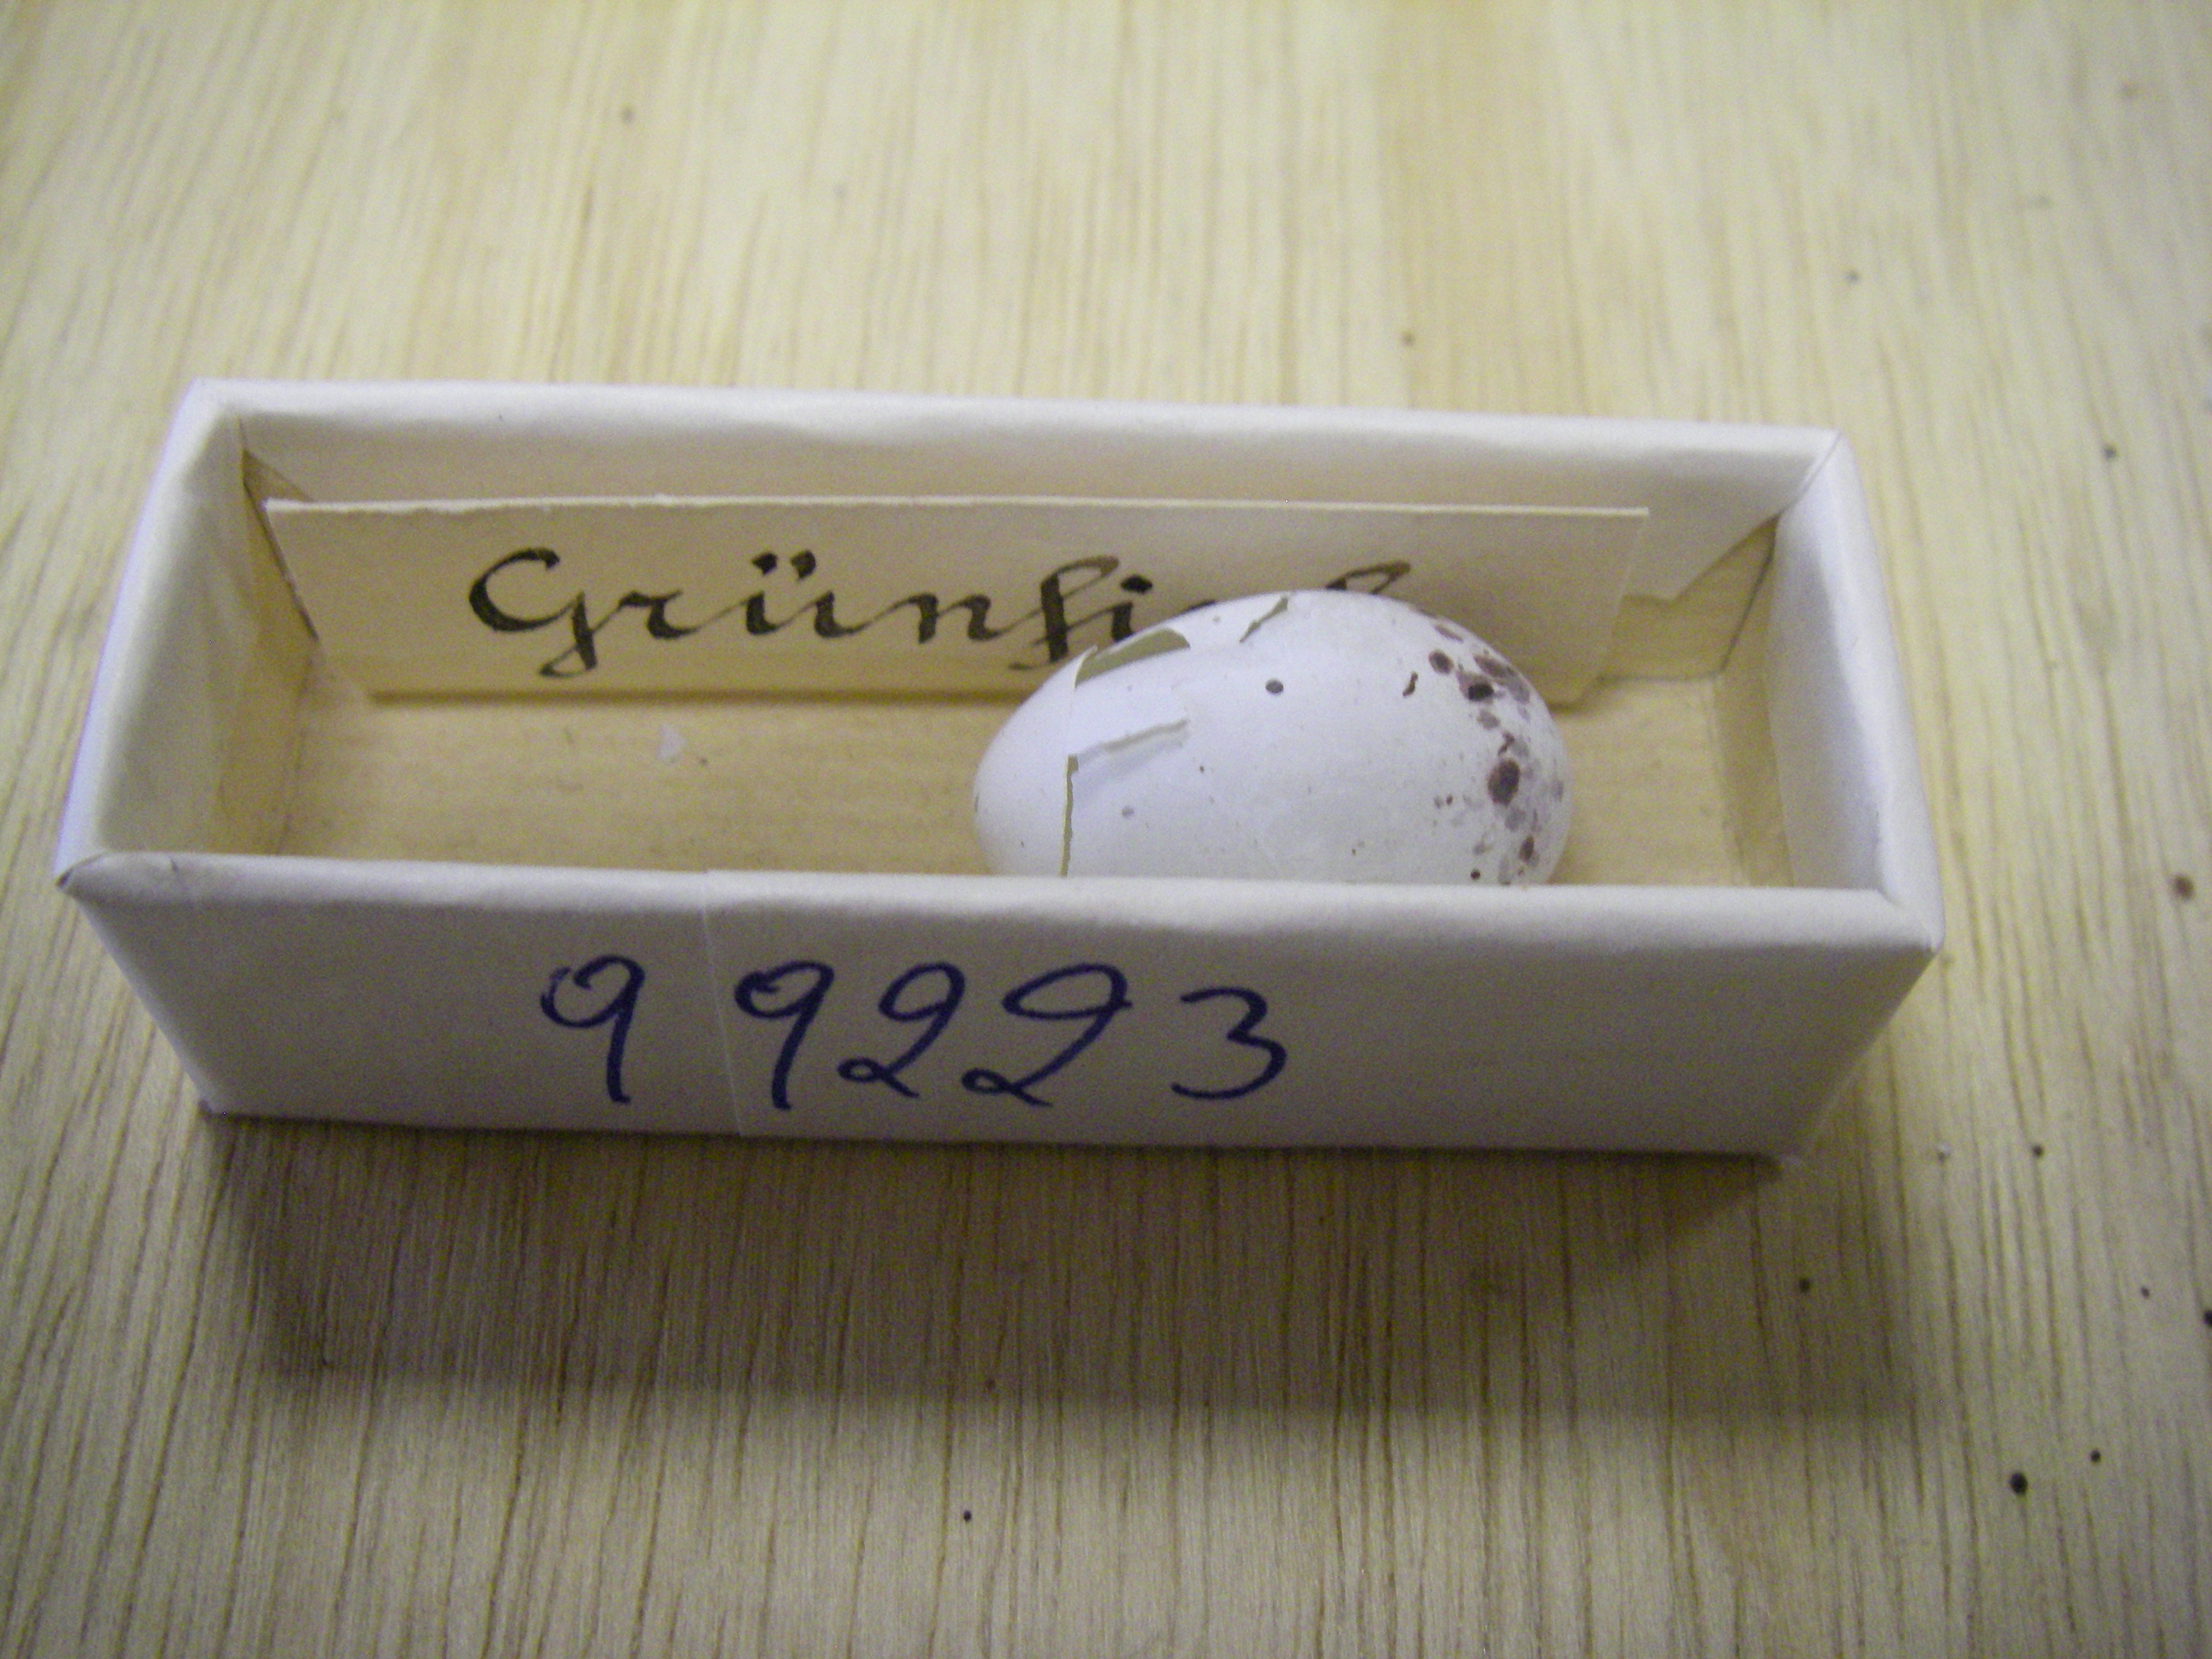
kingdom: Plantae
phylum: Tracheophyta
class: Liliopsida
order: Poales
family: Poaceae
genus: Chloris
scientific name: Chloris chloris
